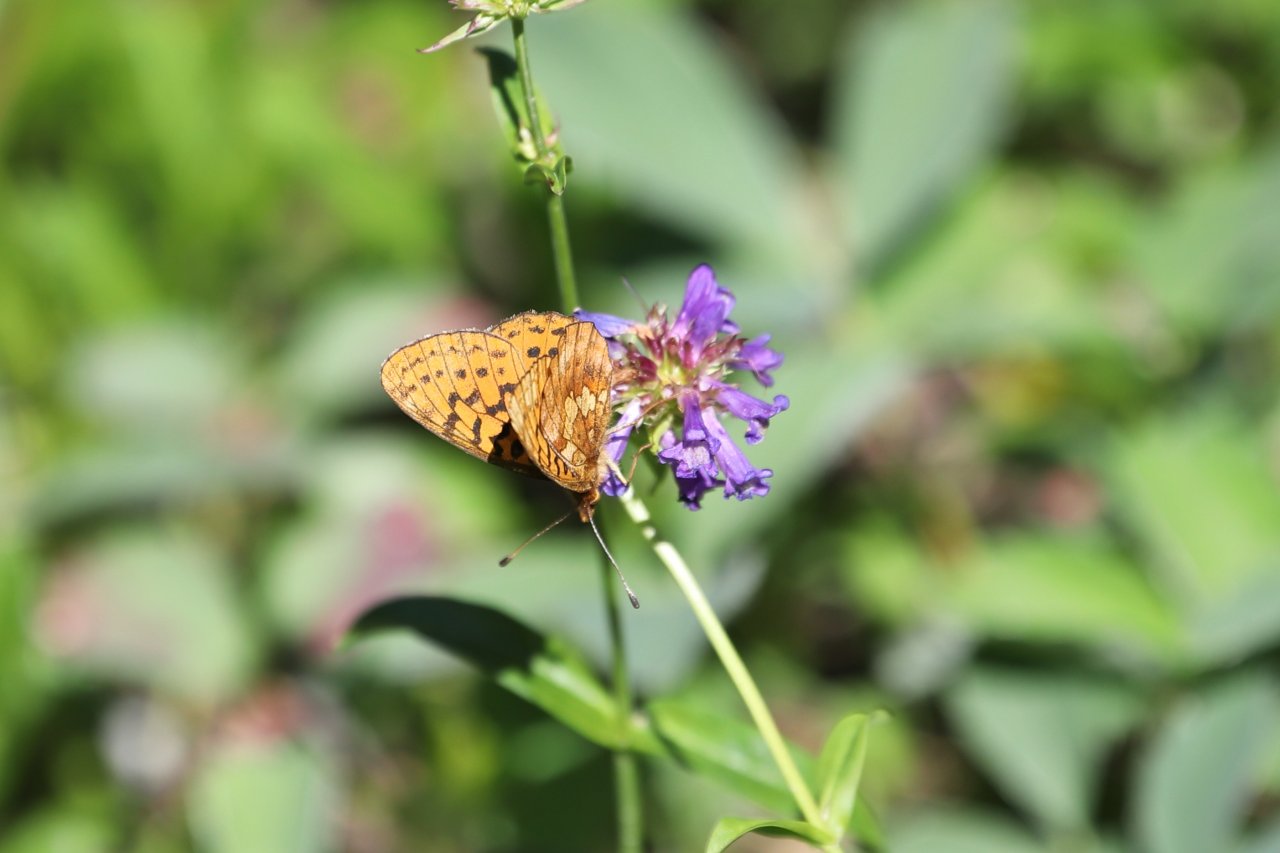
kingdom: Animalia
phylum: Arthropoda
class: Insecta
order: Lepidoptera
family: Nymphalidae
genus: Boloria
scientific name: Boloria epithore
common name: Pacific Fritillary
